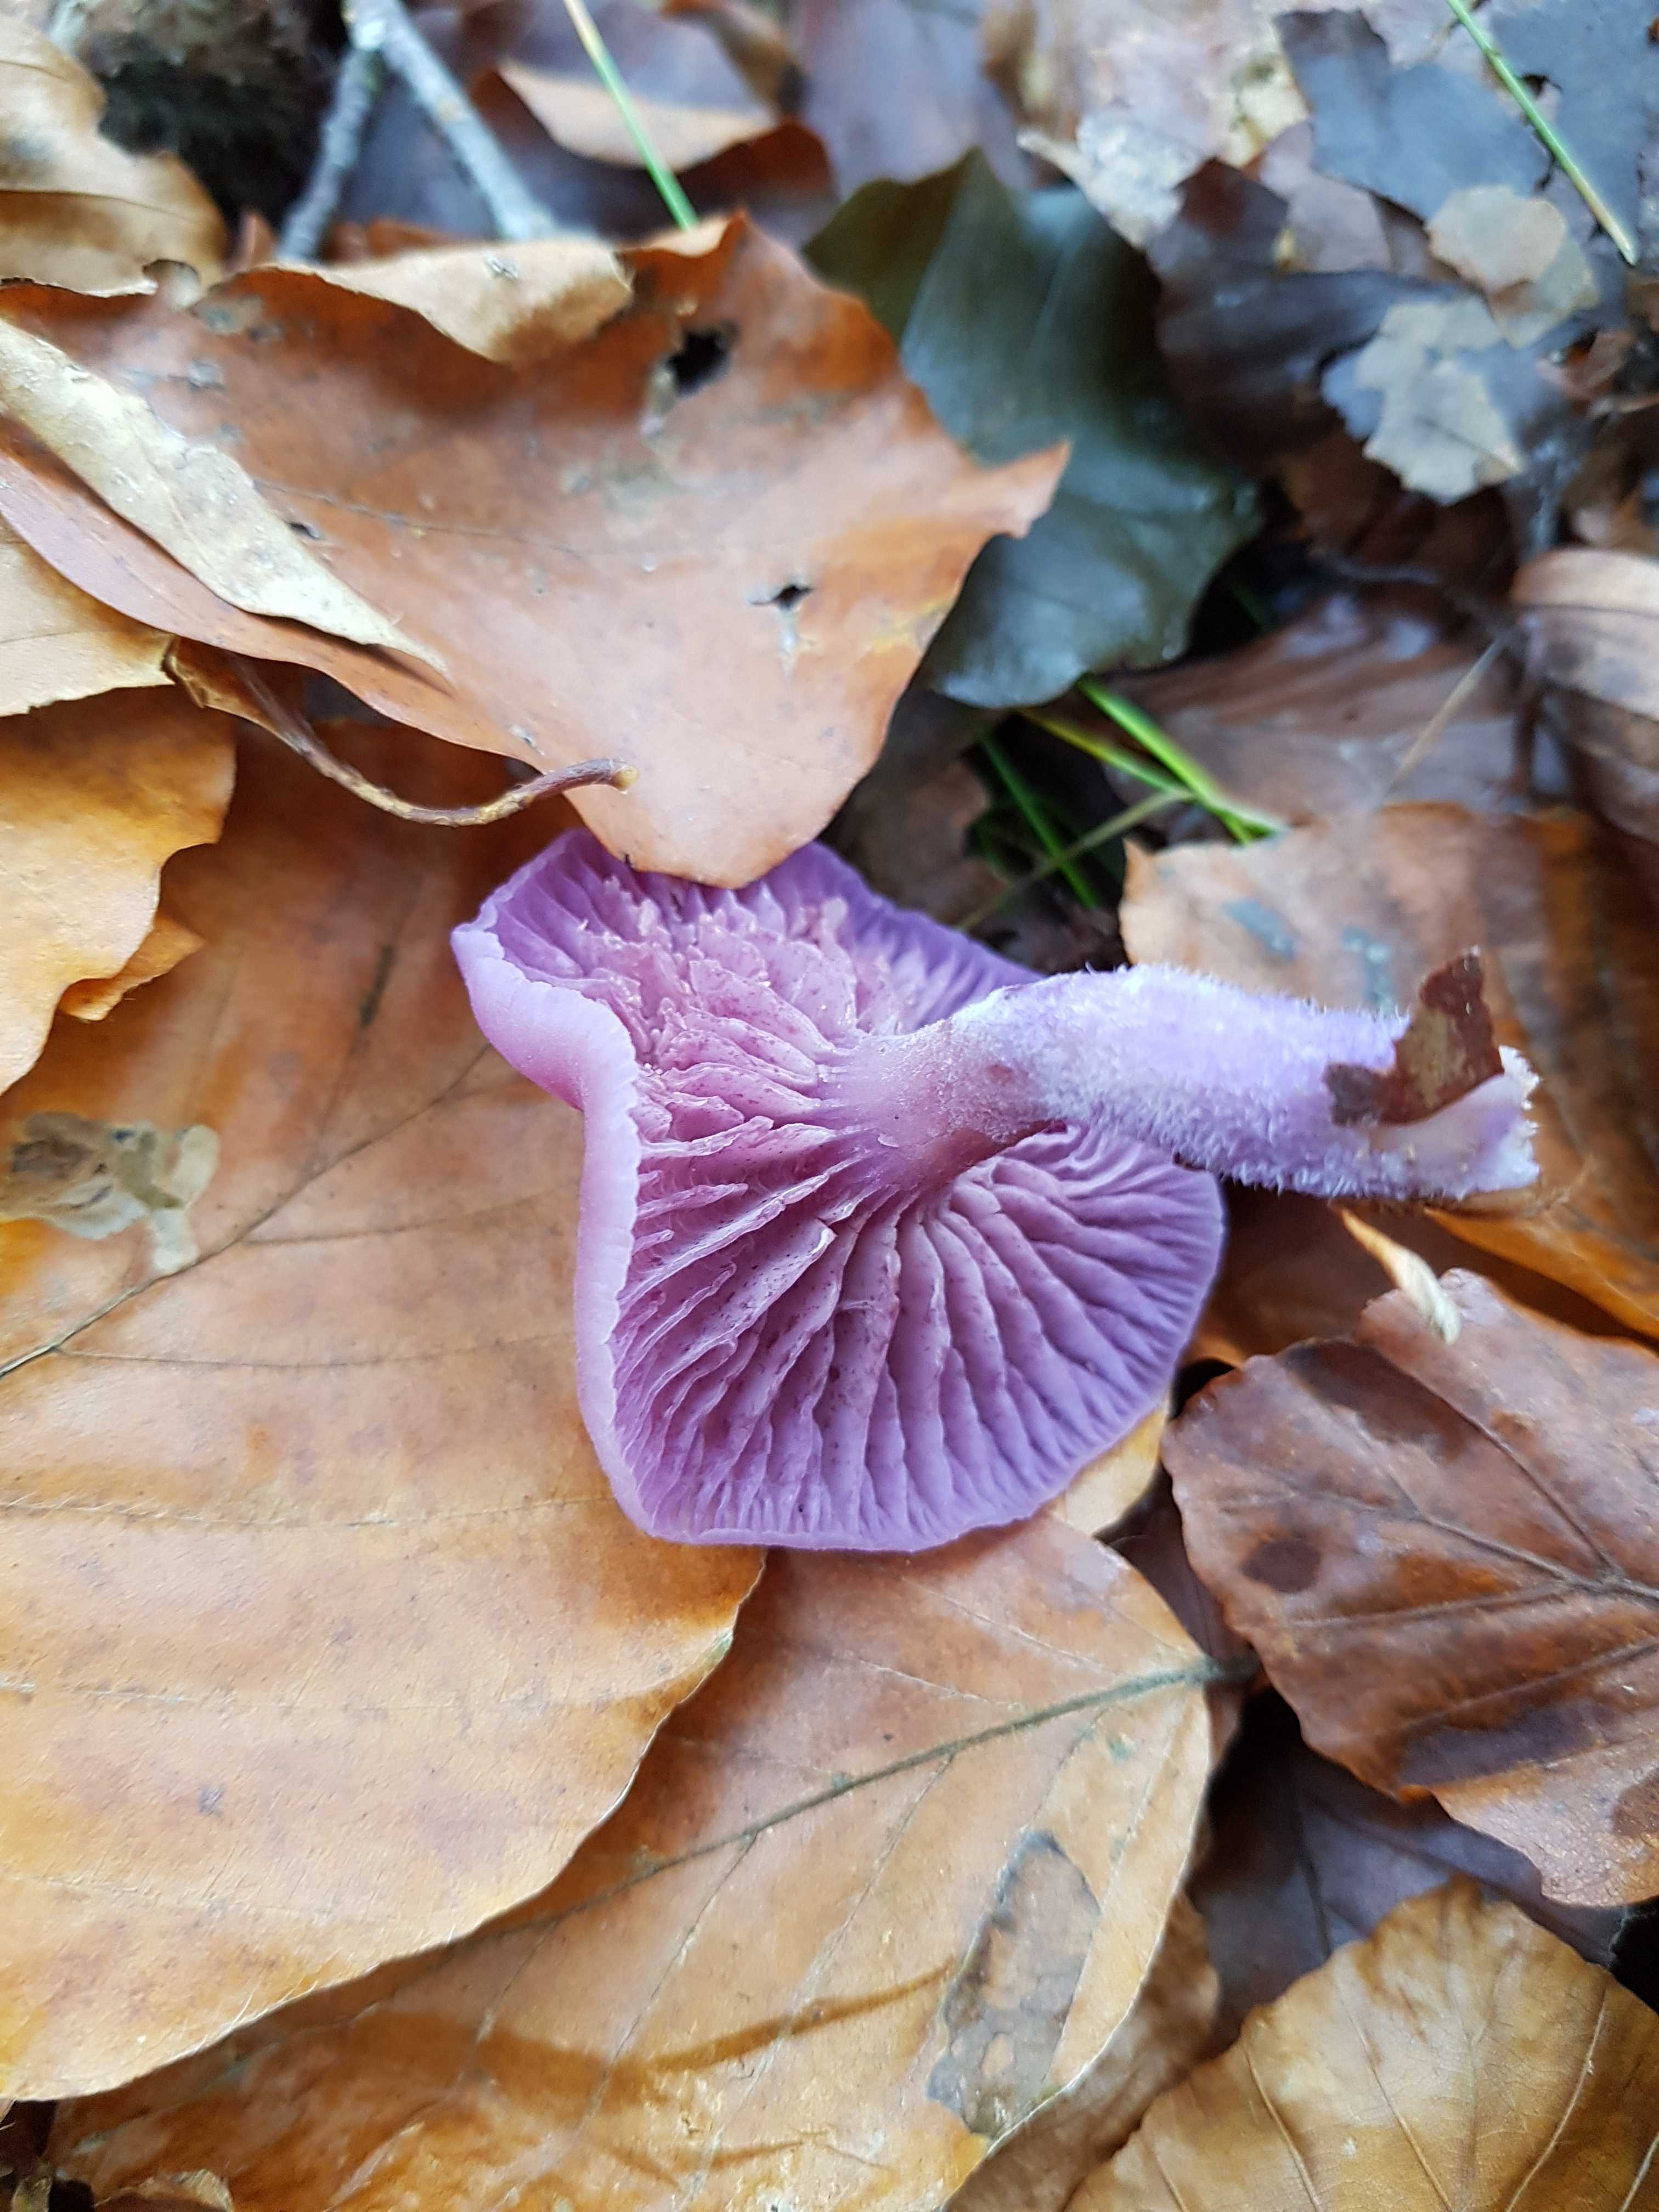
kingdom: Fungi
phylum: Basidiomycota
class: Agaricomycetes
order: Agaricales
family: Hydnangiaceae
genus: Laccaria
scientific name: Laccaria amethystina
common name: violet ametysthat
